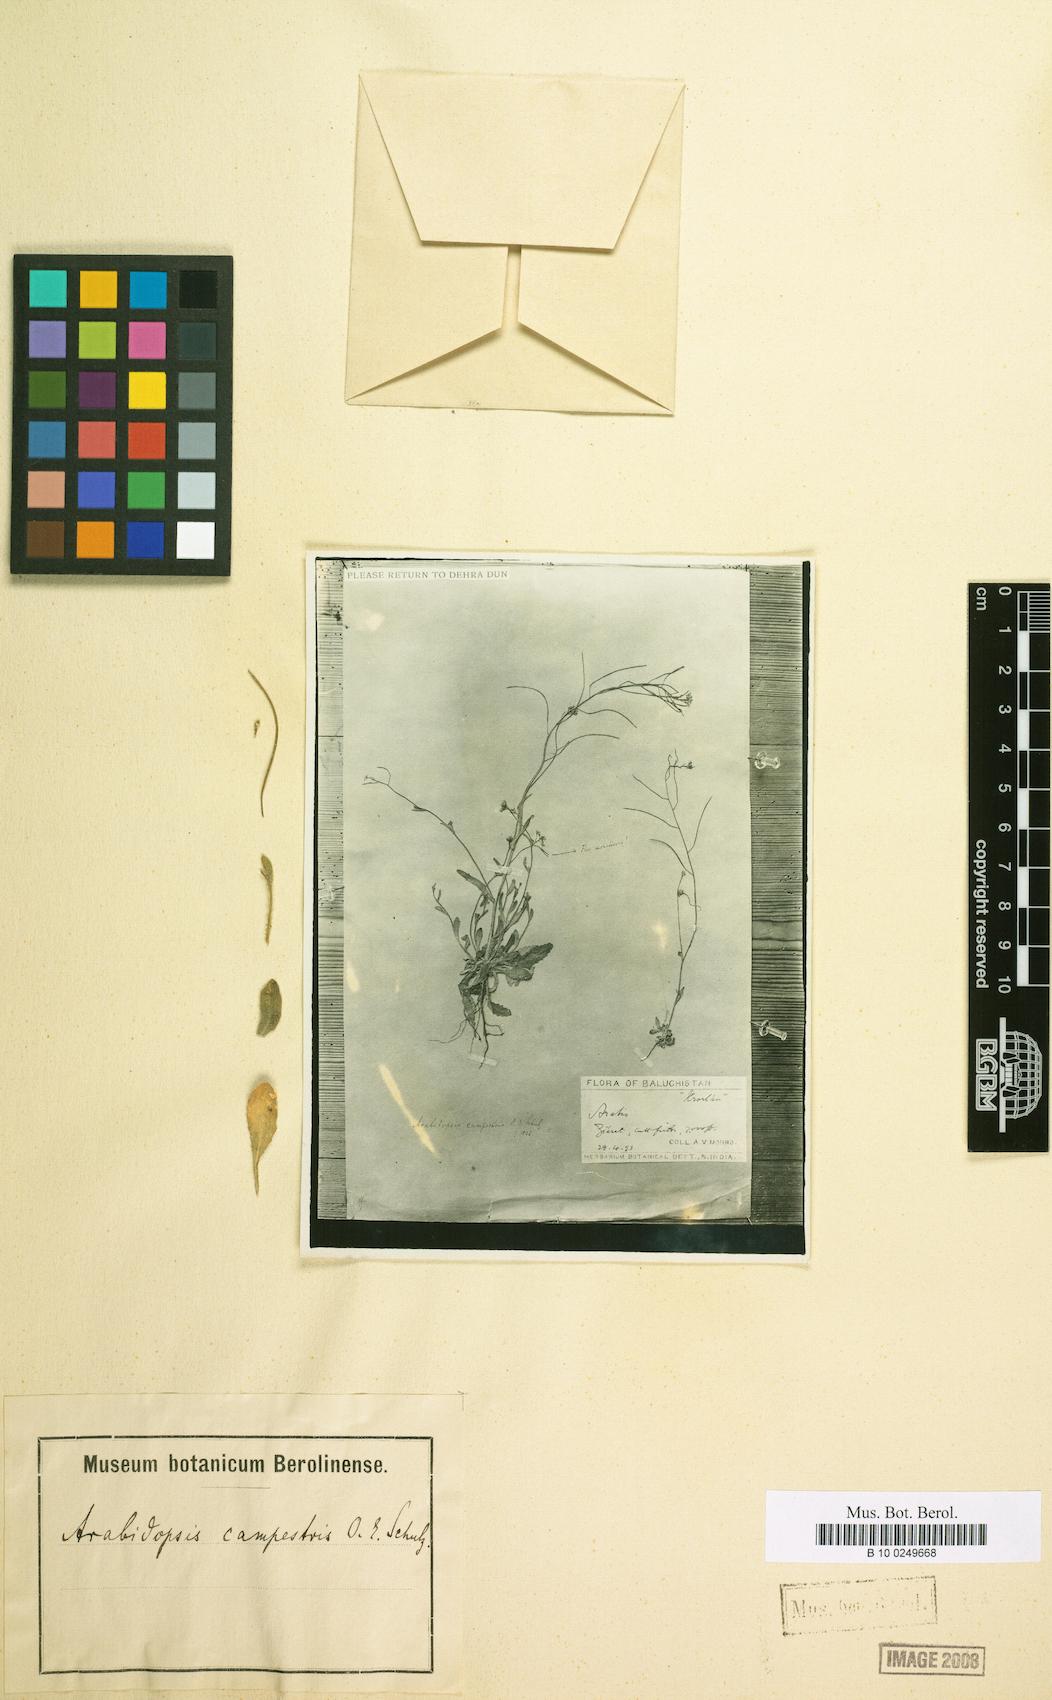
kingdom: Plantae
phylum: Tracheophyta
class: Magnoliopsida
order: Brassicales
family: Brassicaceae
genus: Crucihimalaya
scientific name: Crucihimalaya wallichii
